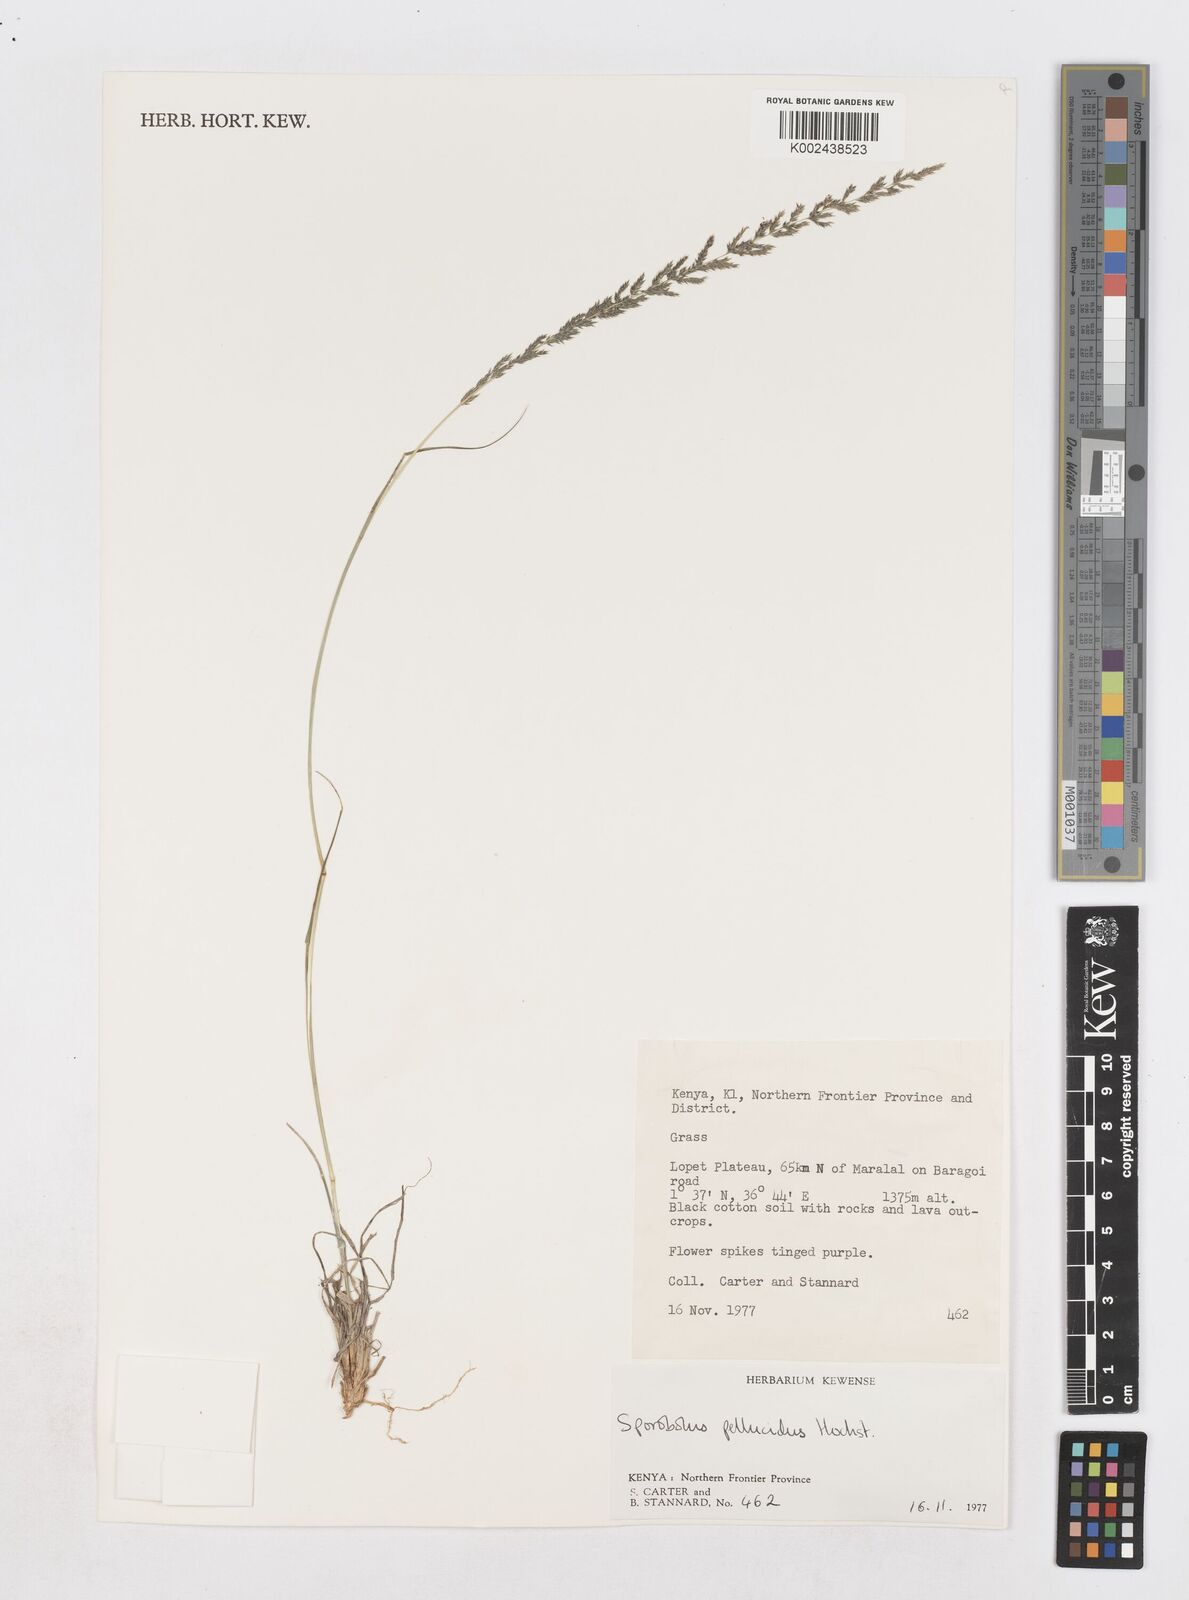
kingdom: Plantae
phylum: Tracheophyta
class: Liliopsida
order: Poales
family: Poaceae
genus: Sporobolus
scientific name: Sporobolus pellucidus
